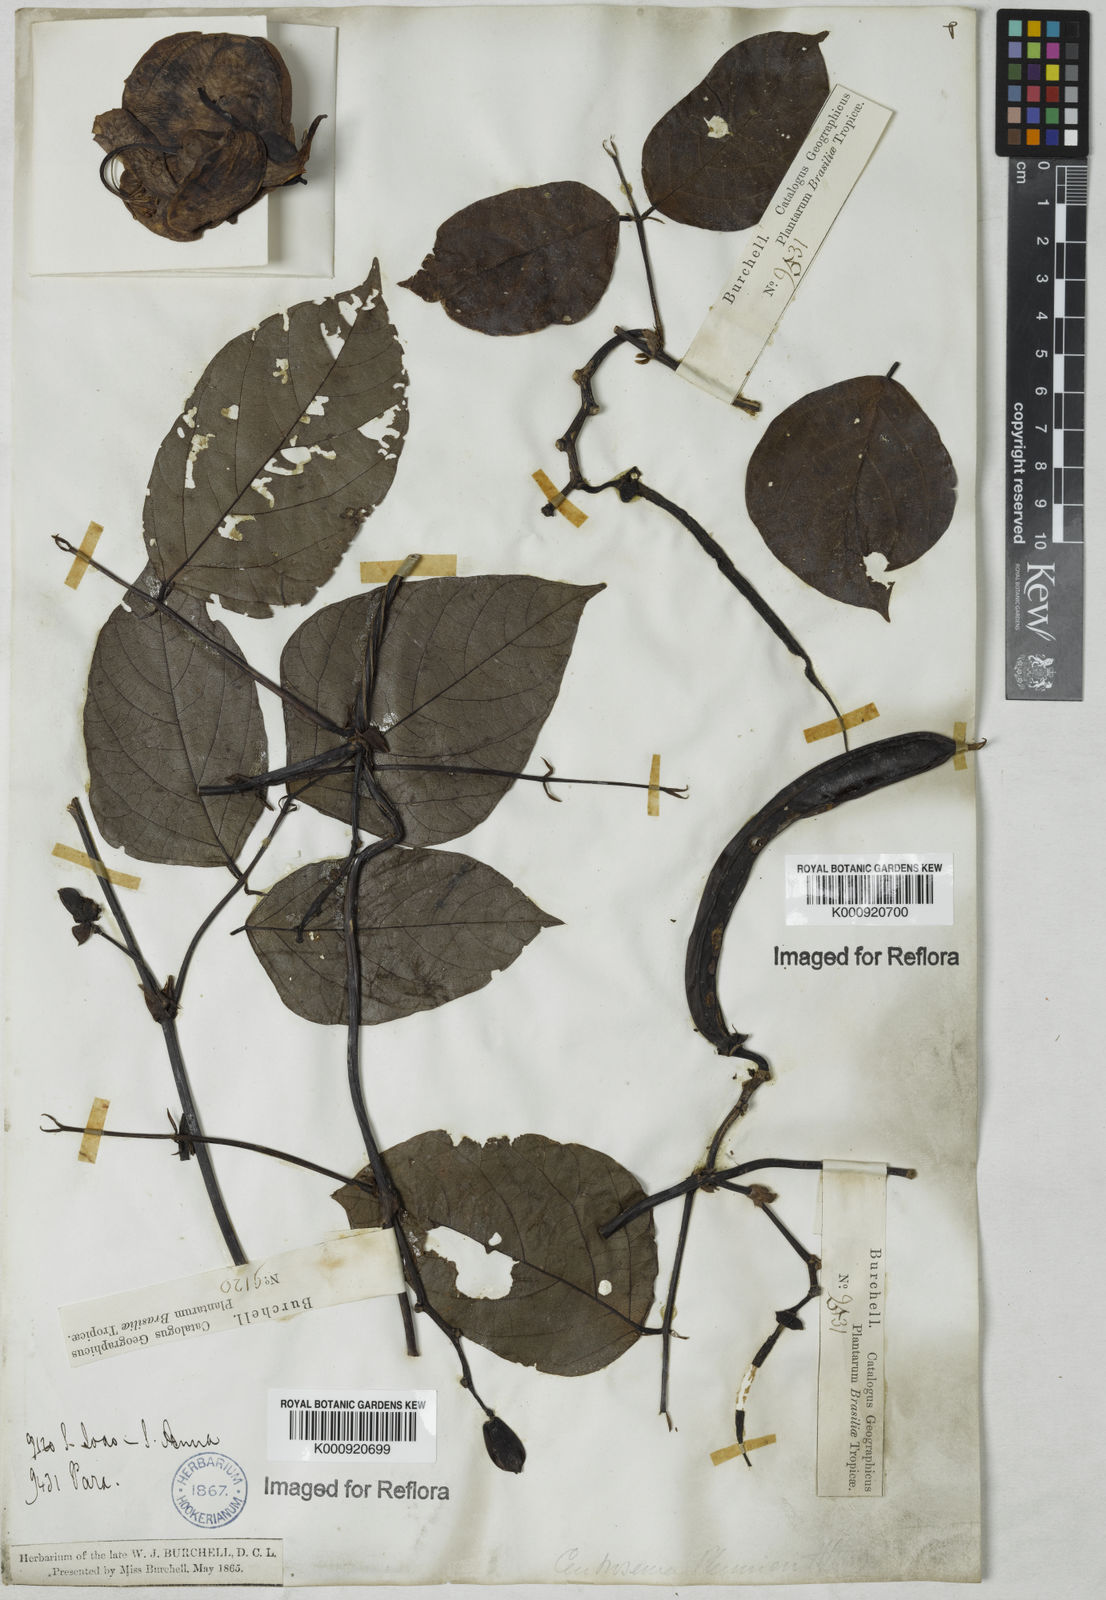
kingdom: Plantae
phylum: Tracheophyta
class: Magnoliopsida
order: Fabales
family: Fabaceae
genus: Centrosema
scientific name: Centrosema plumieri
